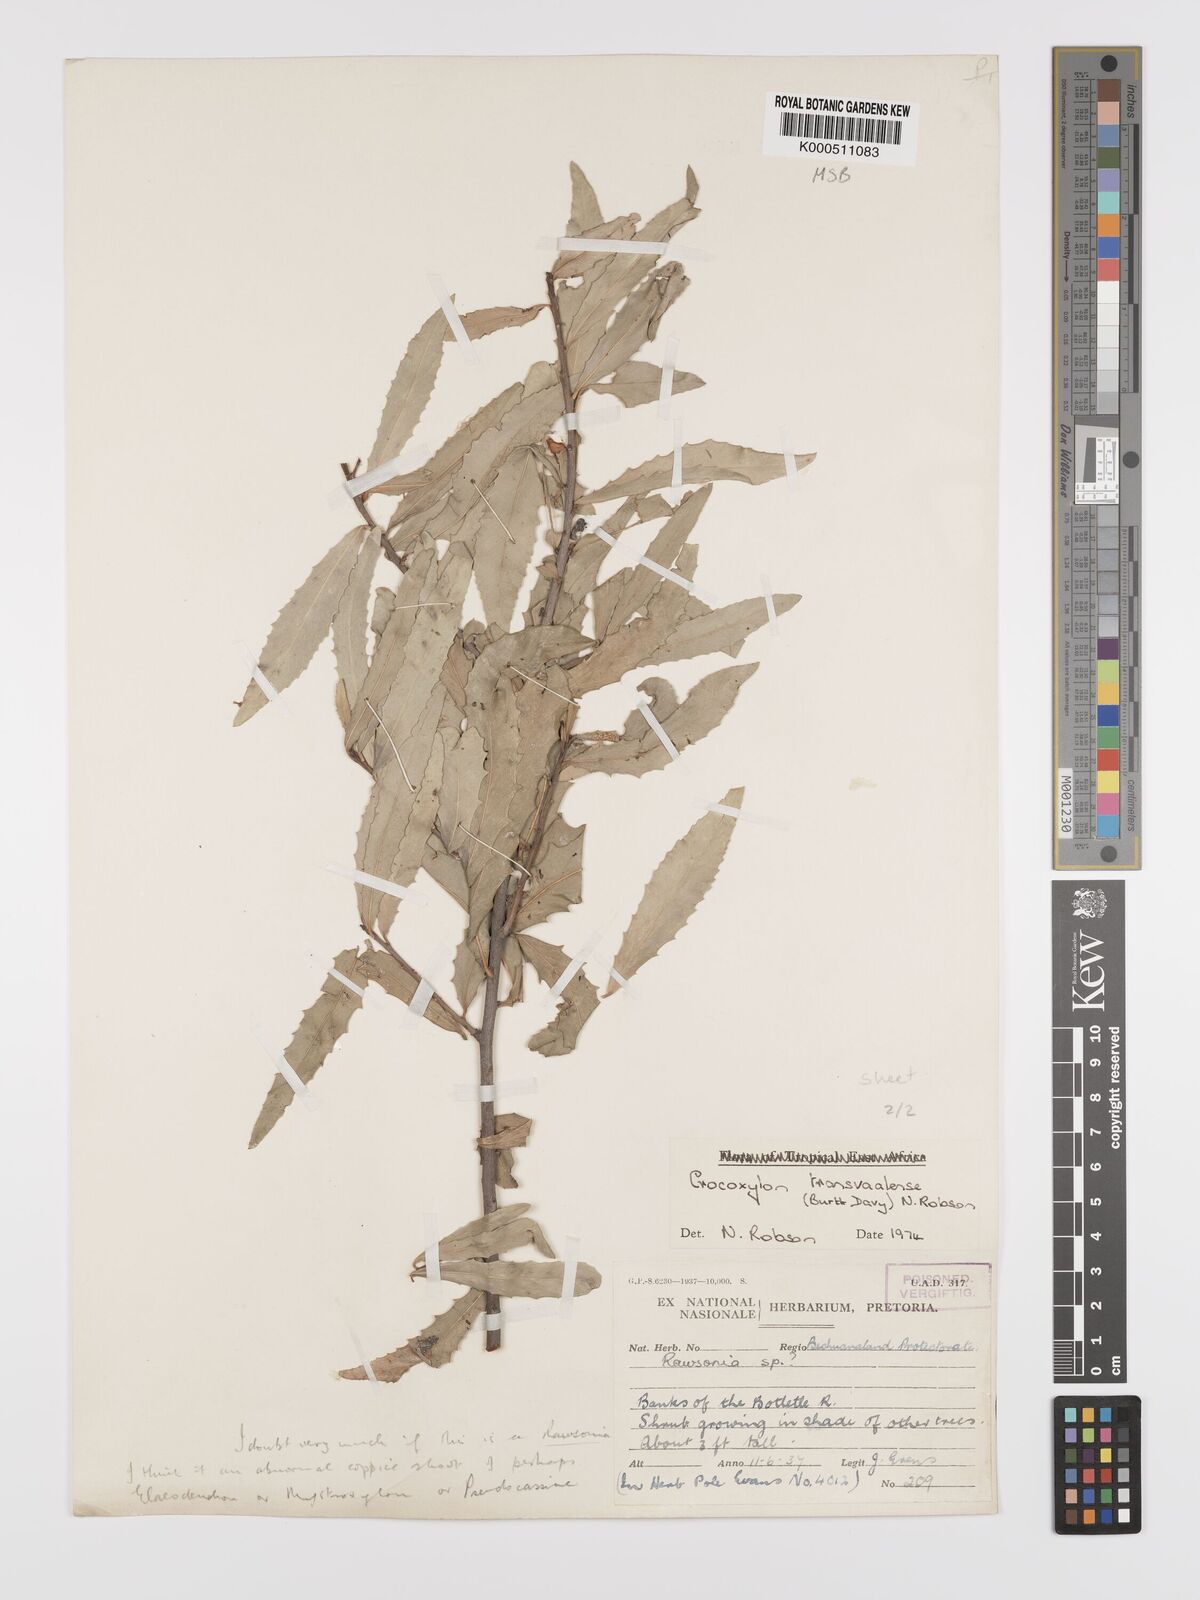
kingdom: Plantae
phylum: Tracheophyta
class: Magnoliopsida
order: Celastrales
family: Celastraceae
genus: Elaeodendron
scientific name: Elaeodendron transvaalense
